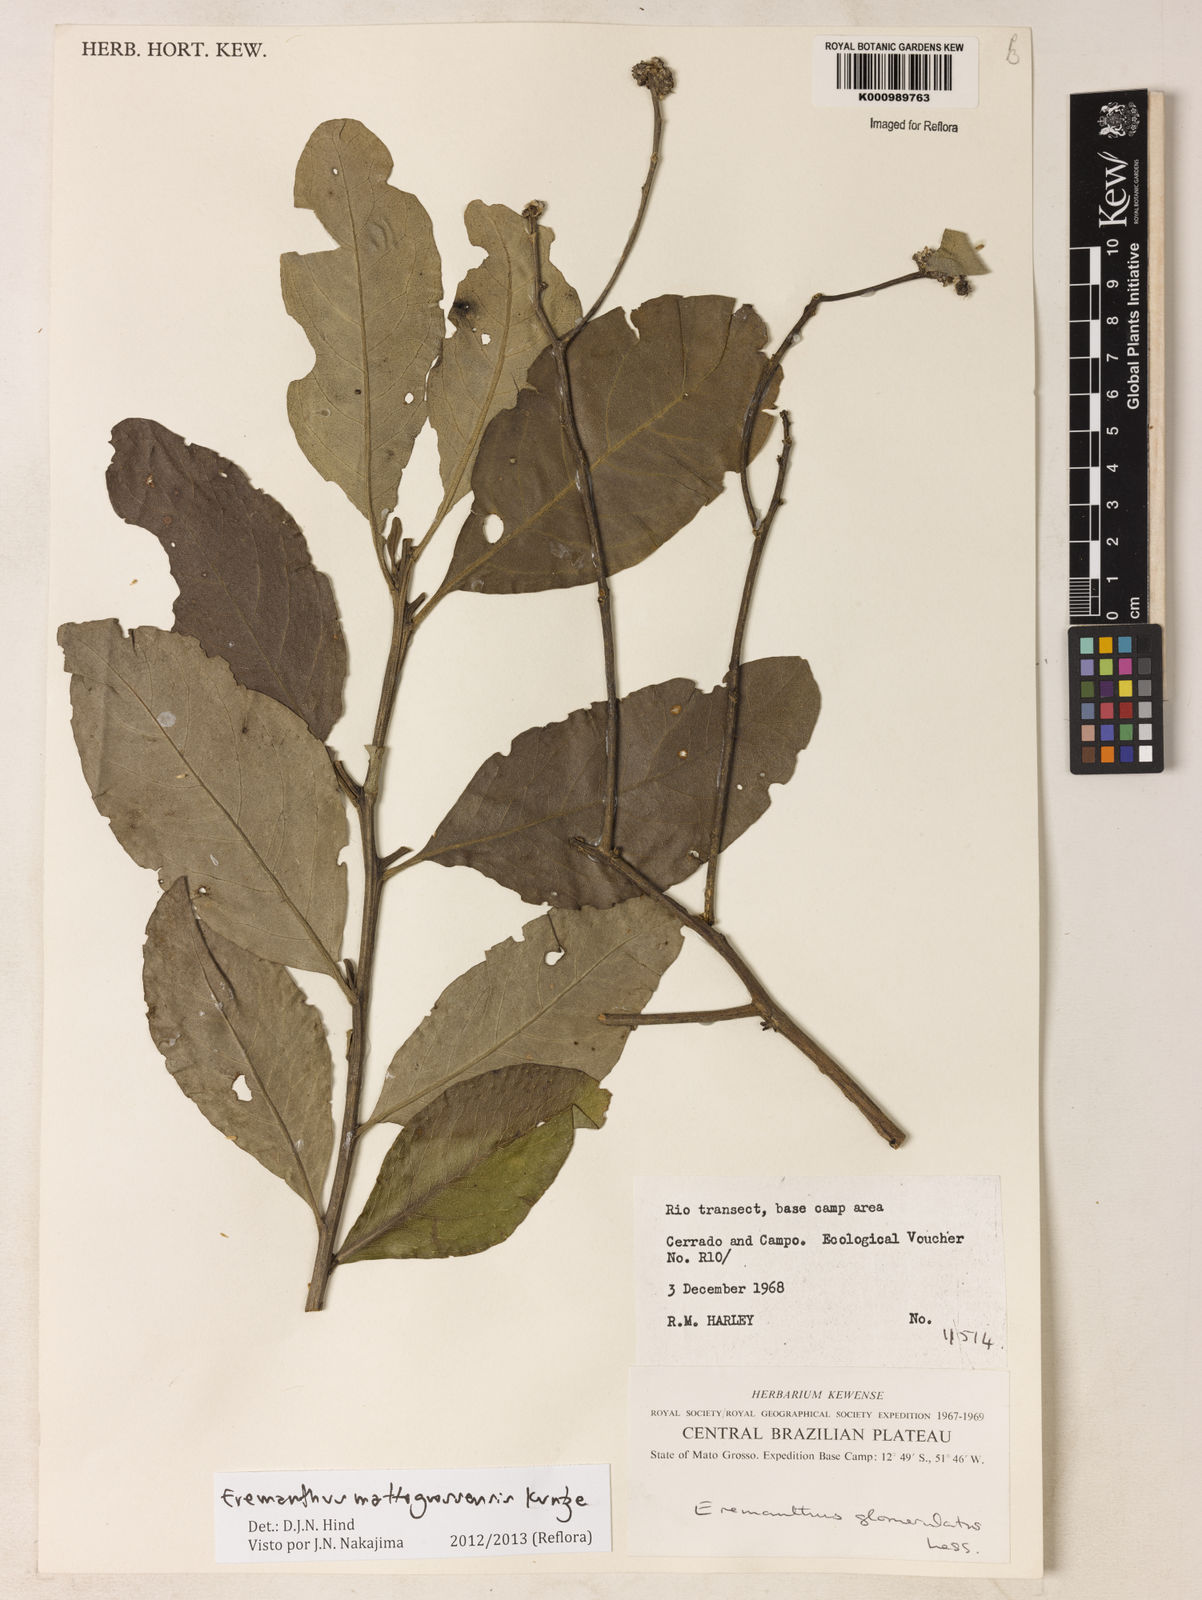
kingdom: Plantae
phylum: Tracheophyta
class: Magnoliopsida
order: Asterales
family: Asteraceae
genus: Eremanthus
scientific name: Eremanthus mattogrossensis
